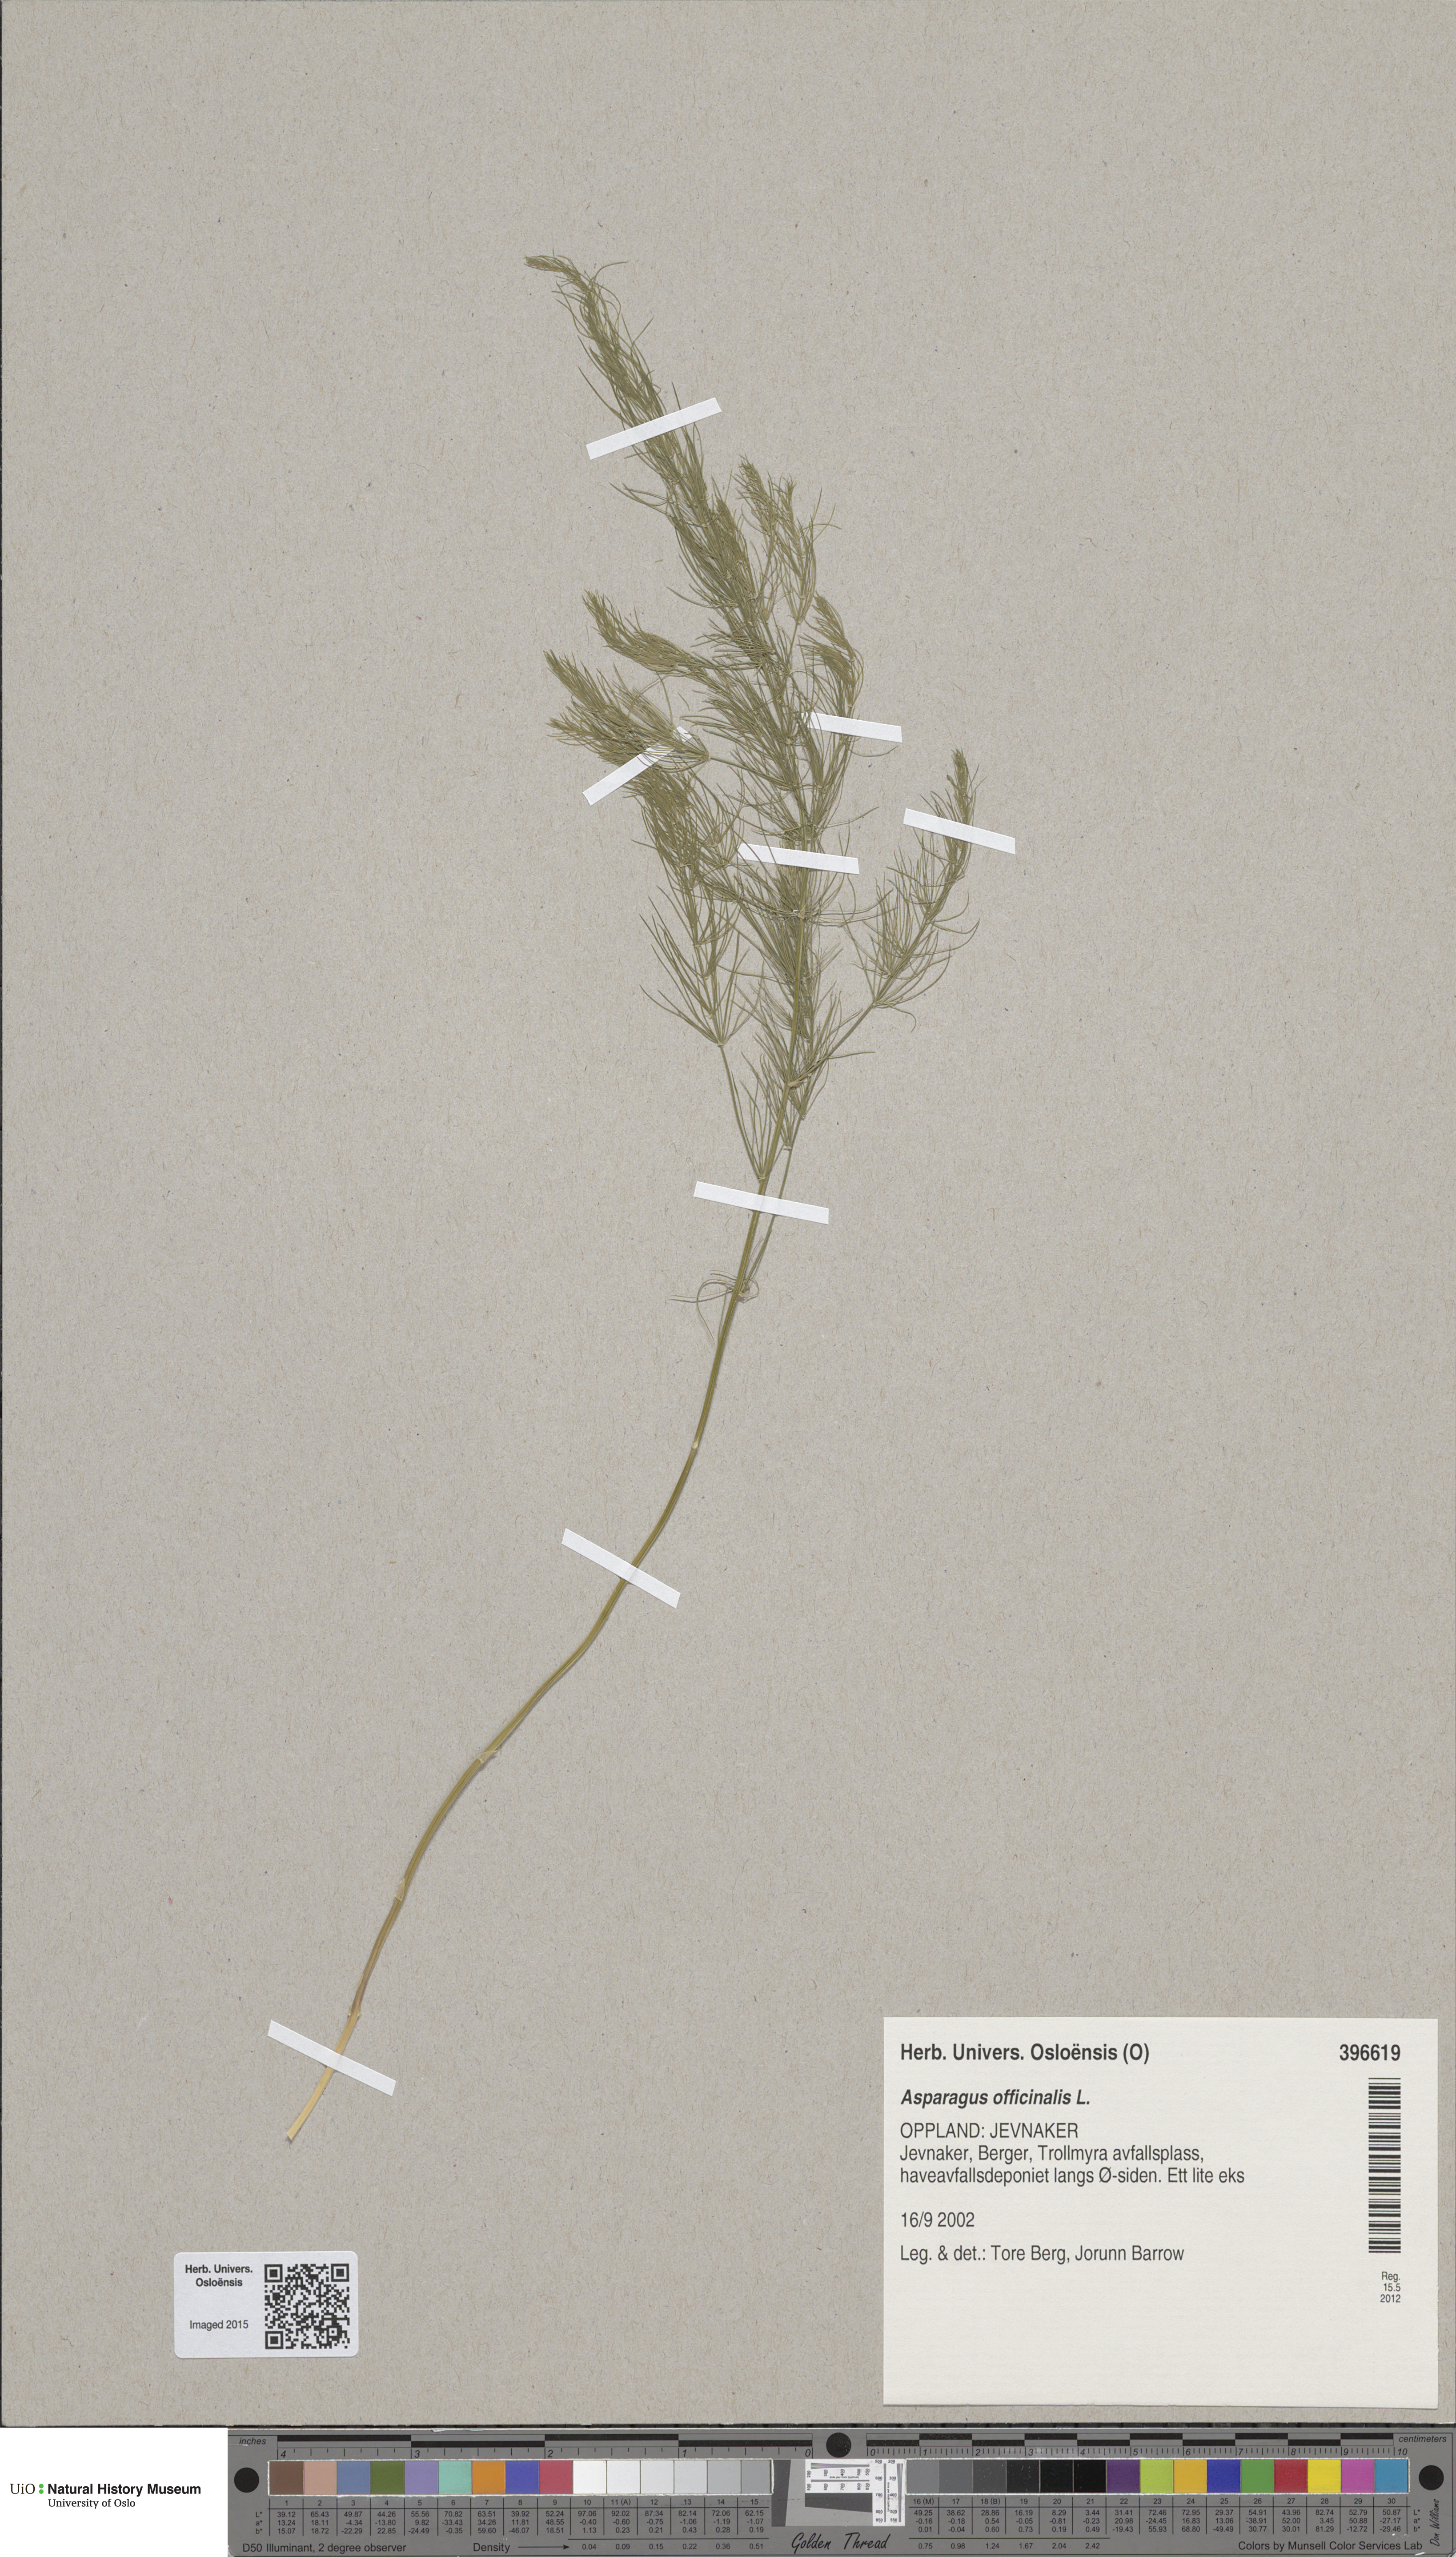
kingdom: Plantae
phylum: Tracheophyta
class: Liliopsida
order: Asparagales
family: Asparagaceae
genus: Asparagus
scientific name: Asparagus officinalis
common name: Garden asparagus
